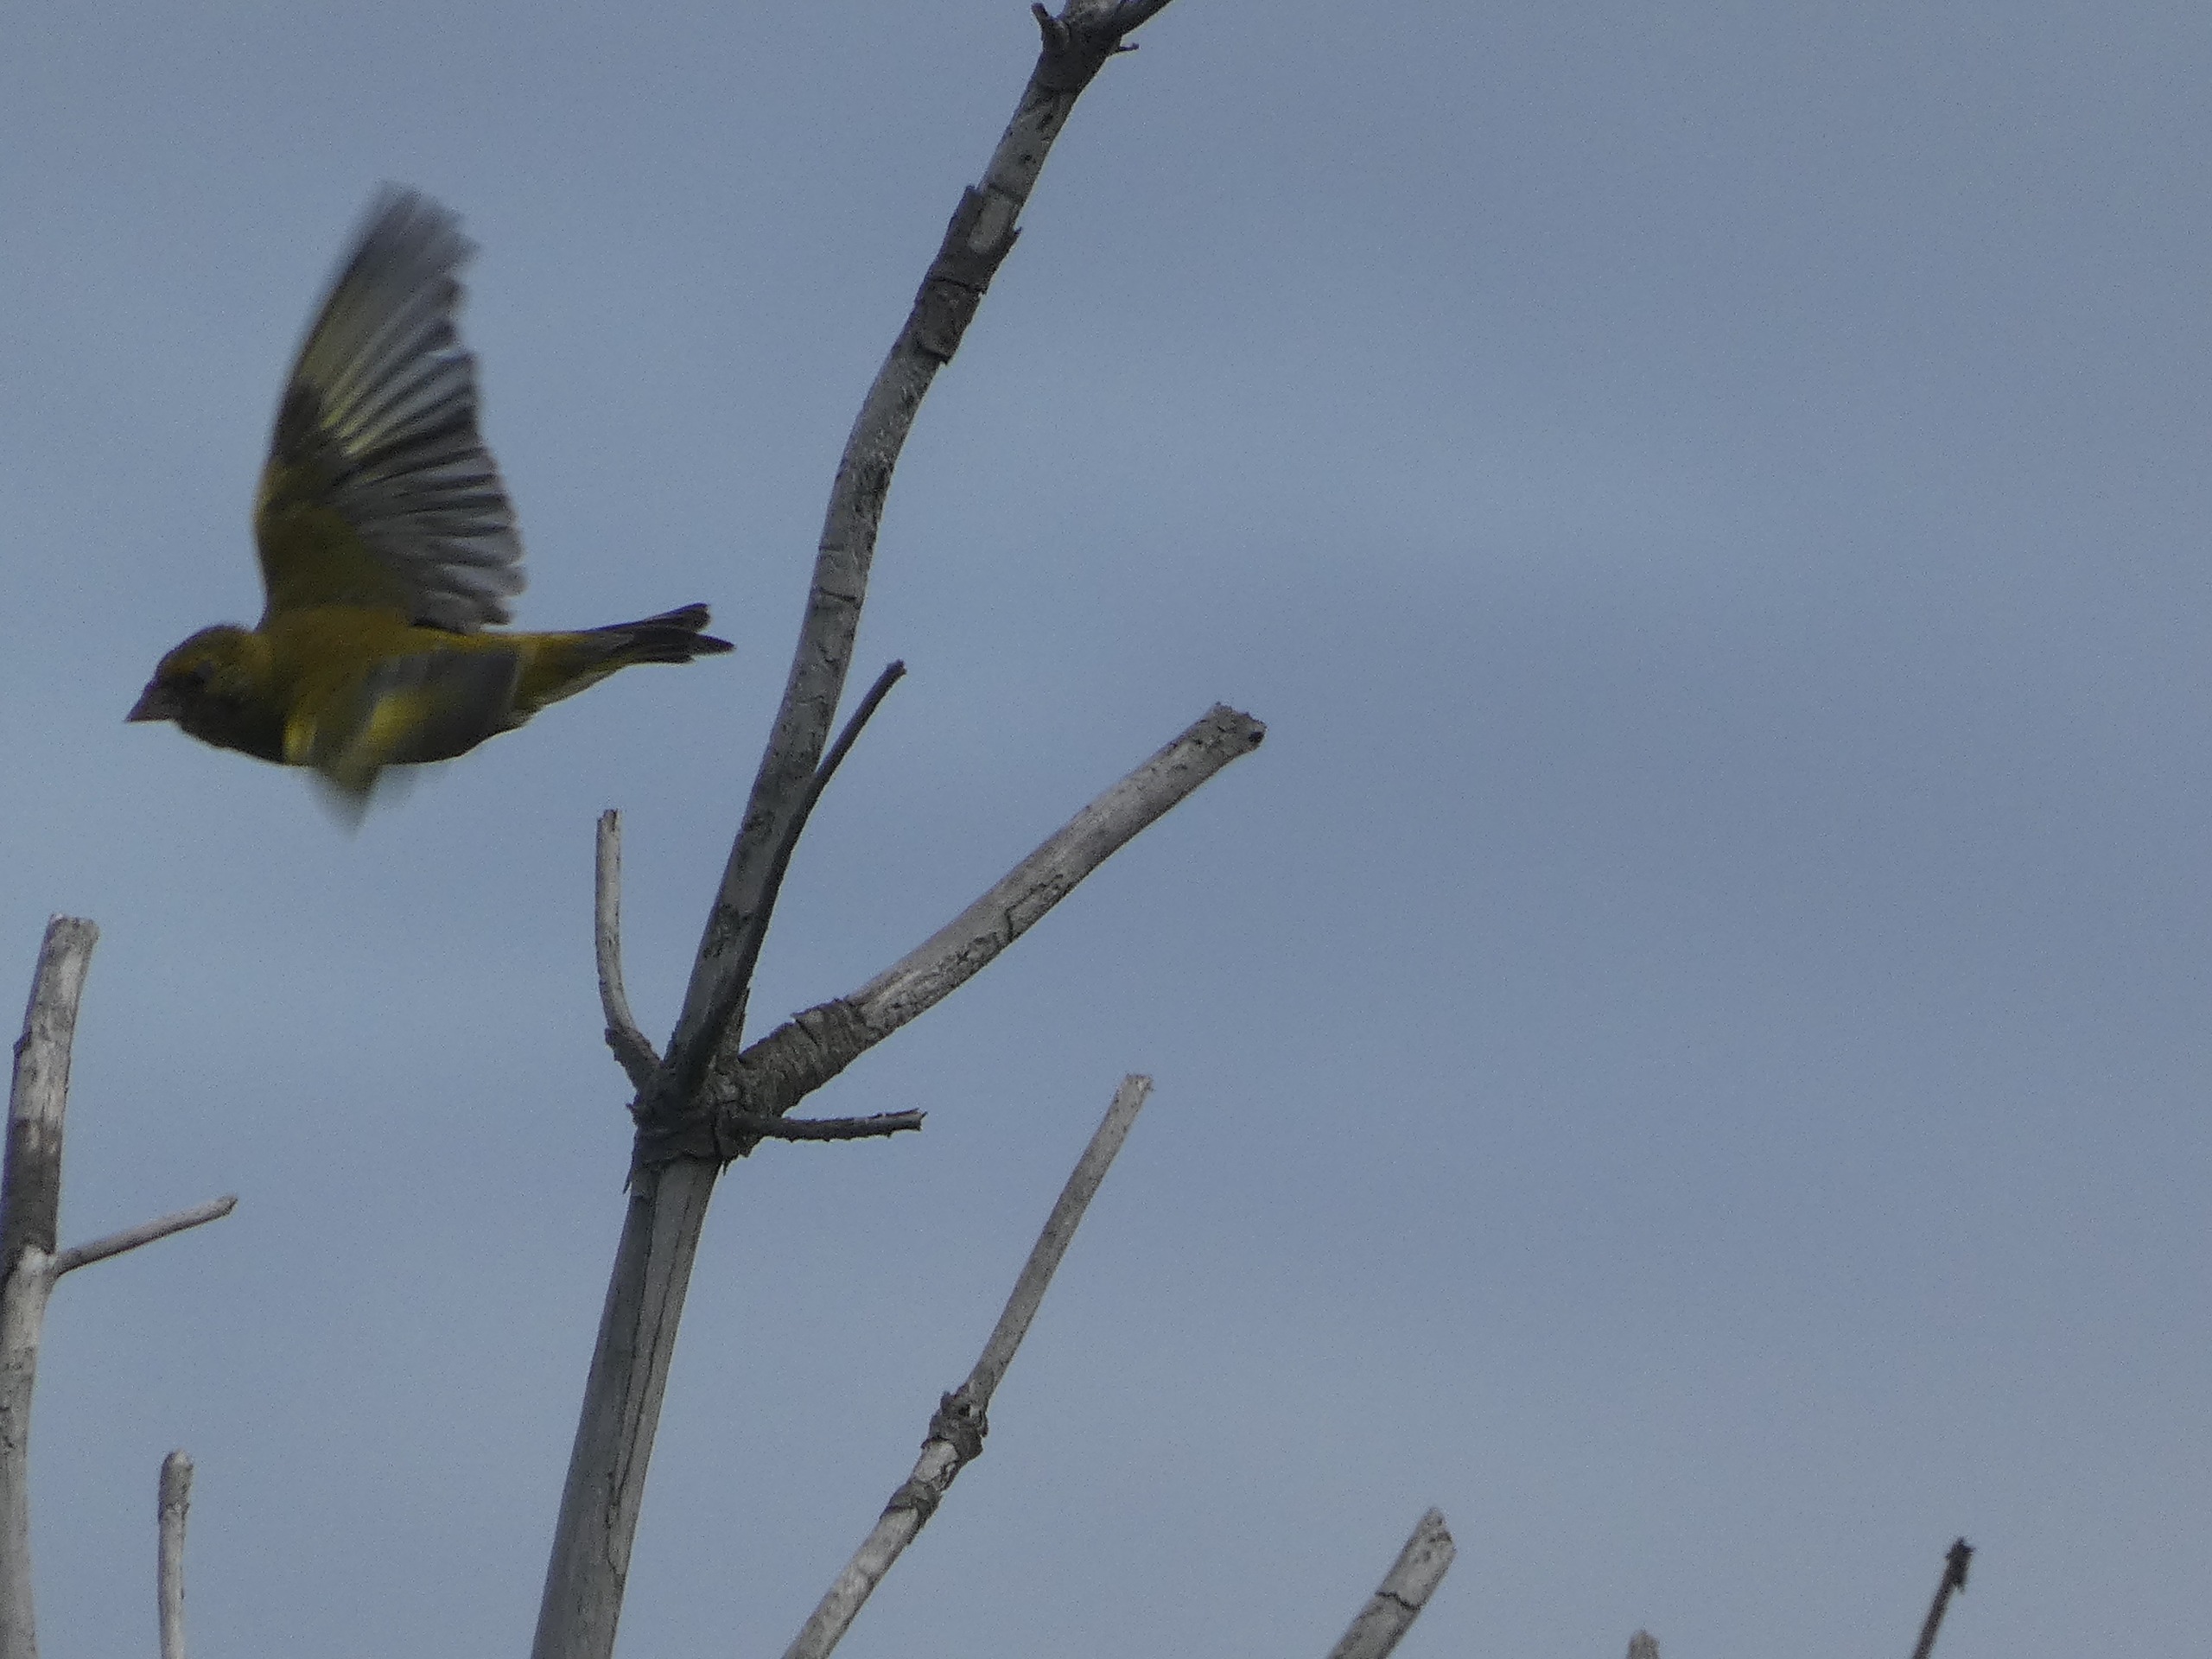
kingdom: Plantae
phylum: Tracheophyta
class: Liliopsida
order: Poales
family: Poaceae
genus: Chloris
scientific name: Chloris chloris
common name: Grønirisk
